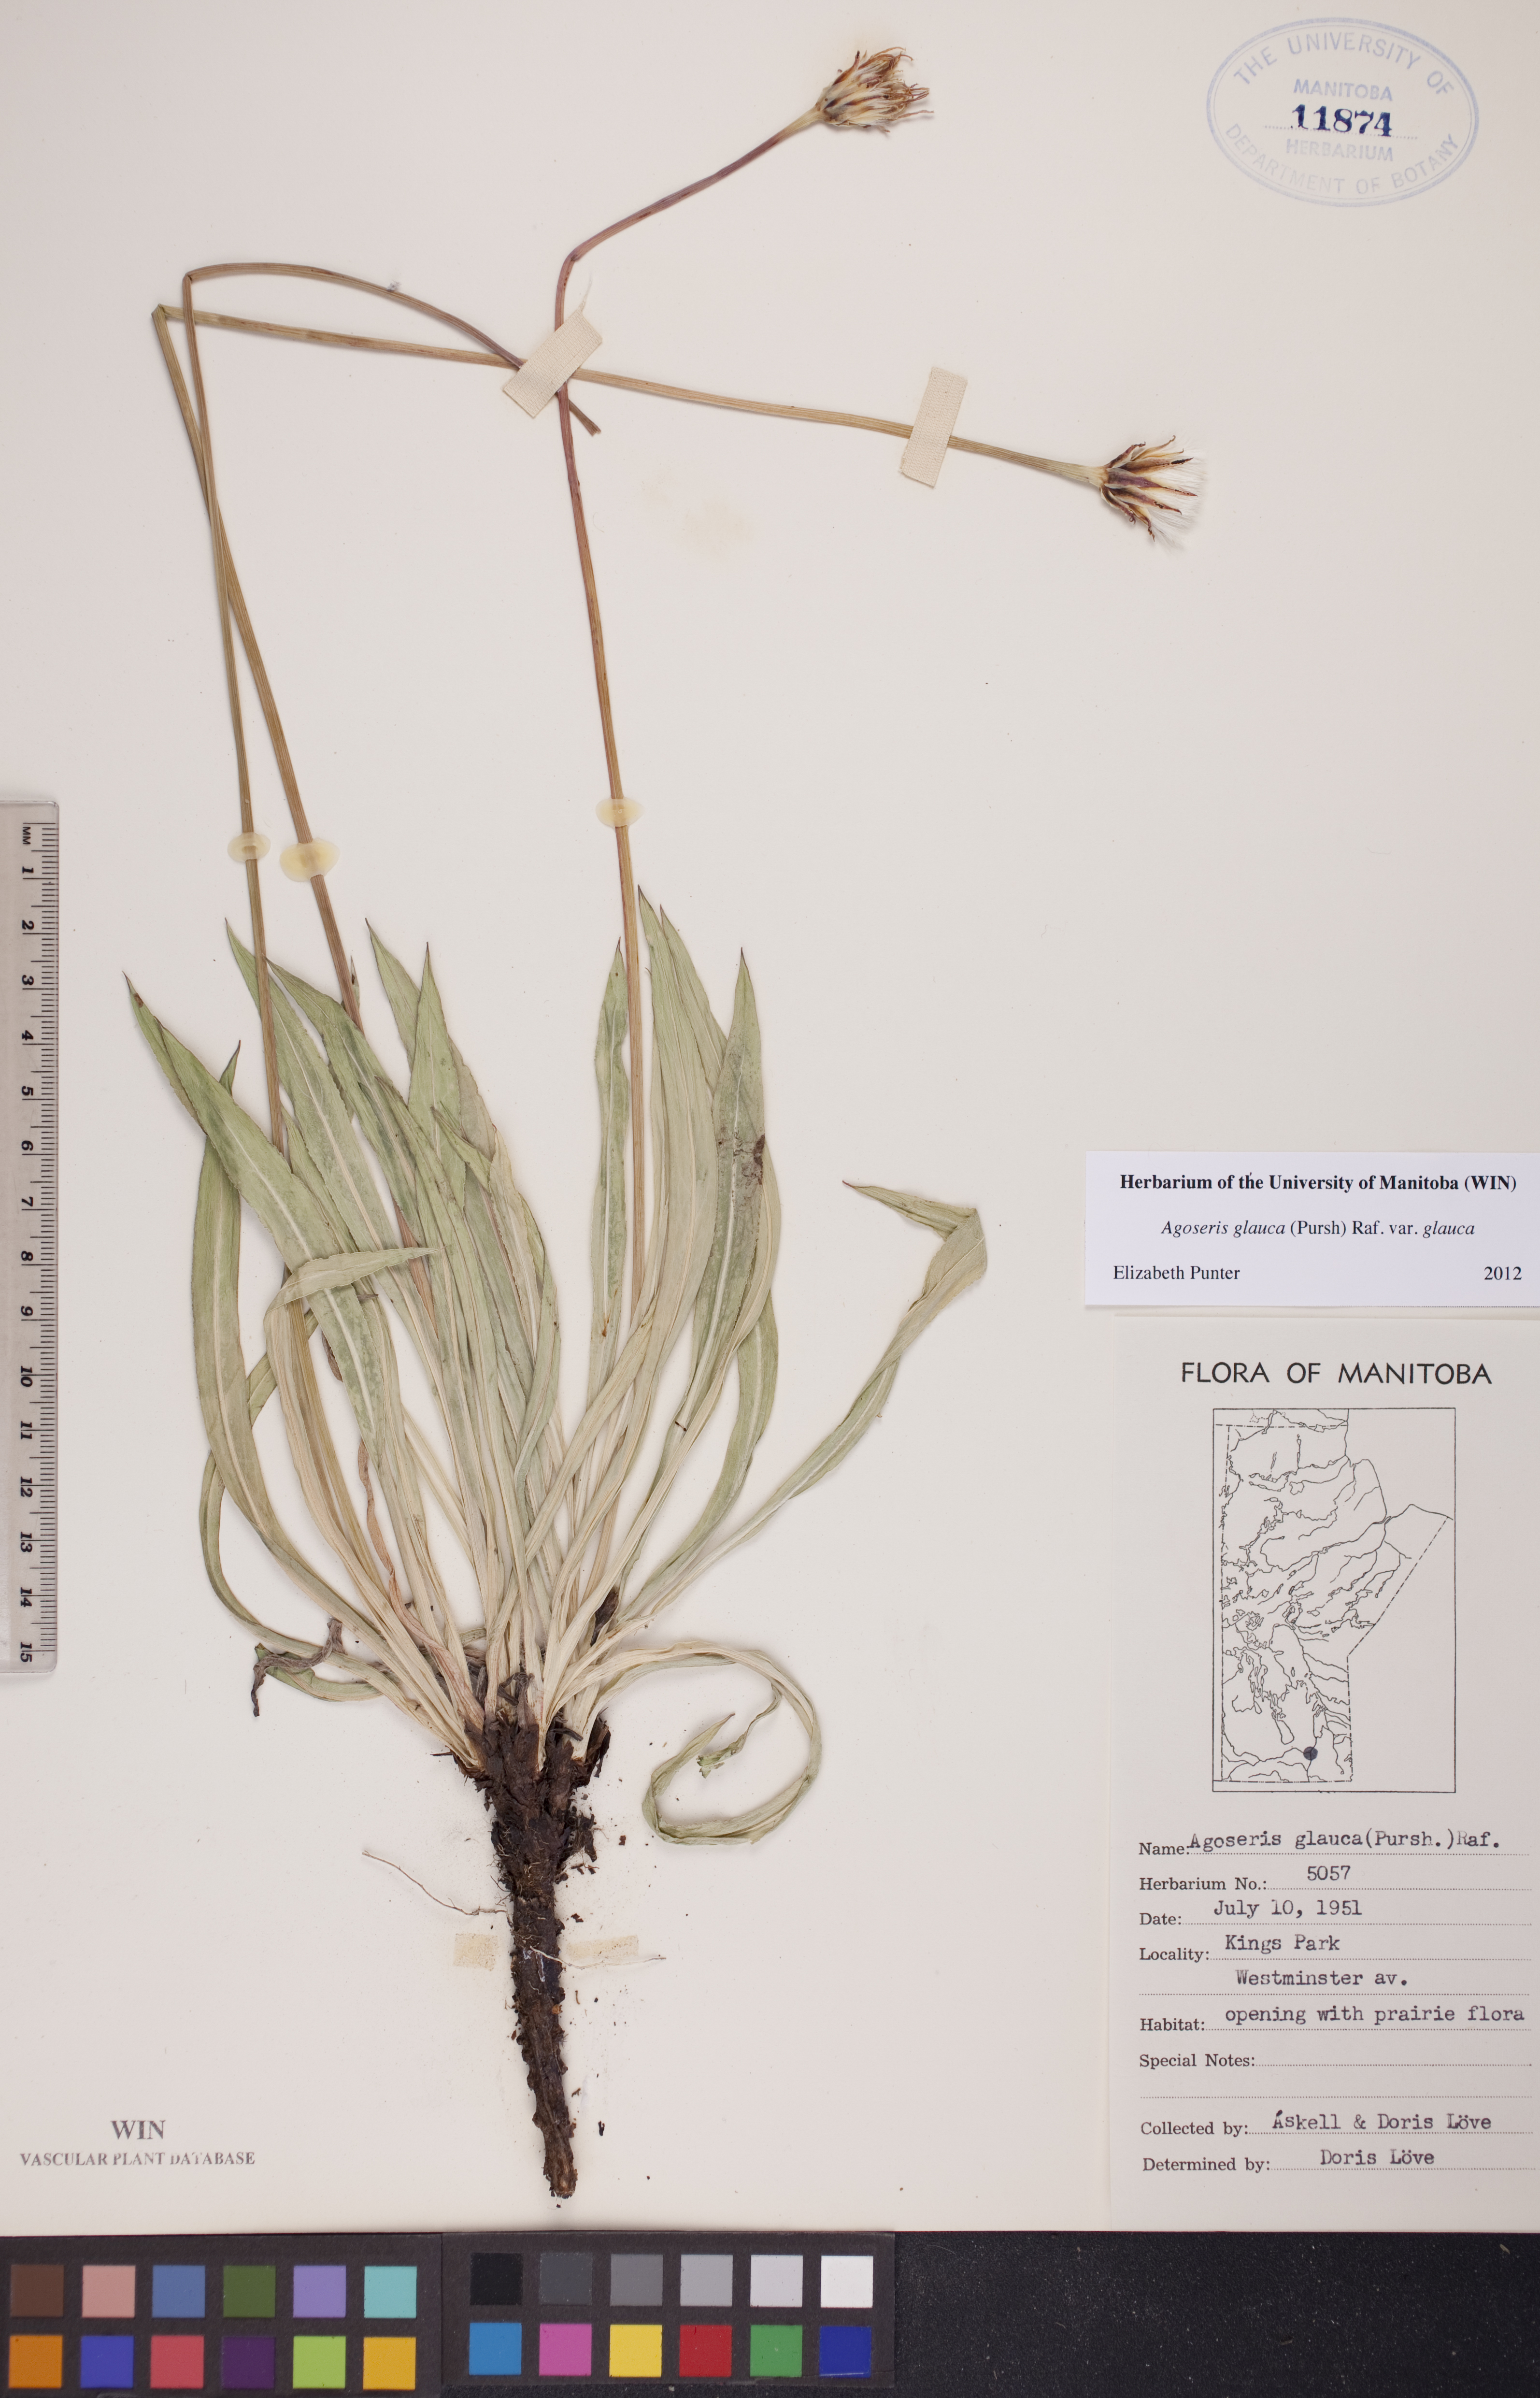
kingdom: Plantae
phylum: Tracheophyta
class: Magnoliopsida
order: Asterales
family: Asteraceae
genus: Agoseris
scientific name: Agoseris glauca
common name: Prairie agoseris
